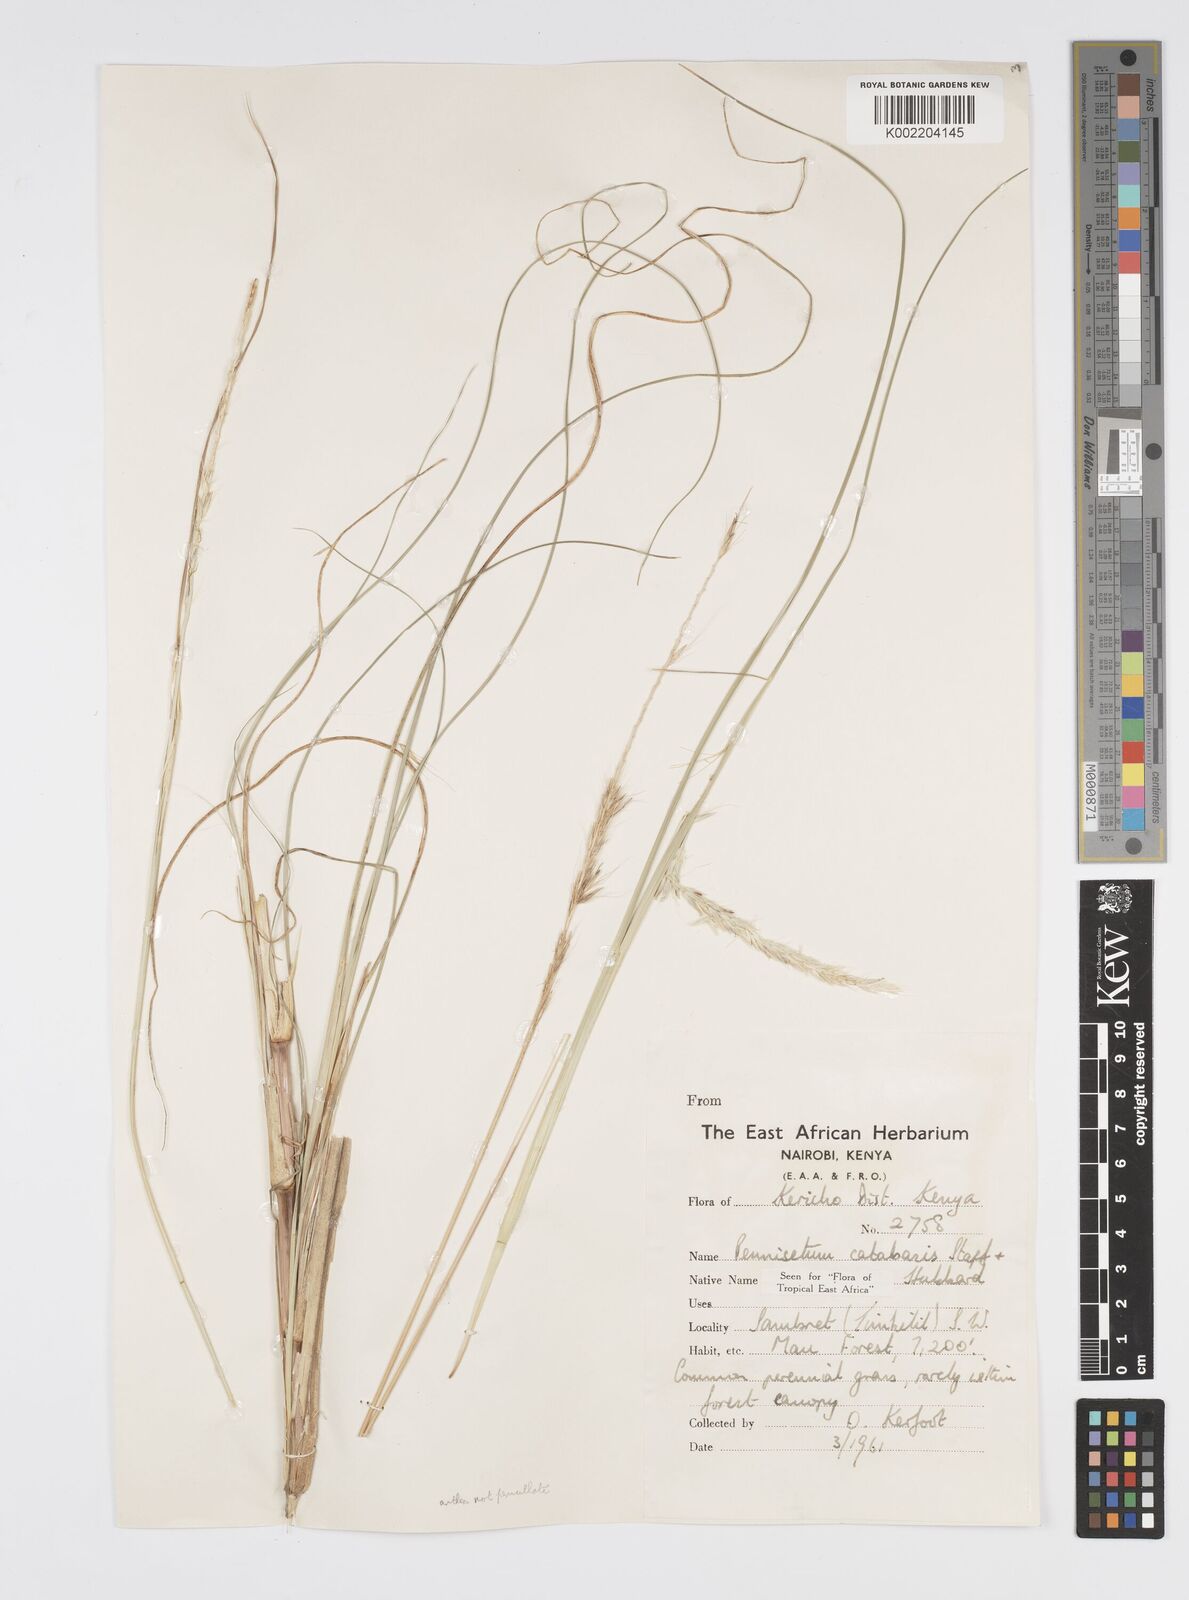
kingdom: Plantae
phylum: Tracheophyta
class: Liliopsida
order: Poales
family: Poaceae
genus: Cenchrus
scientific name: Cenchrus Pennisetum spec
